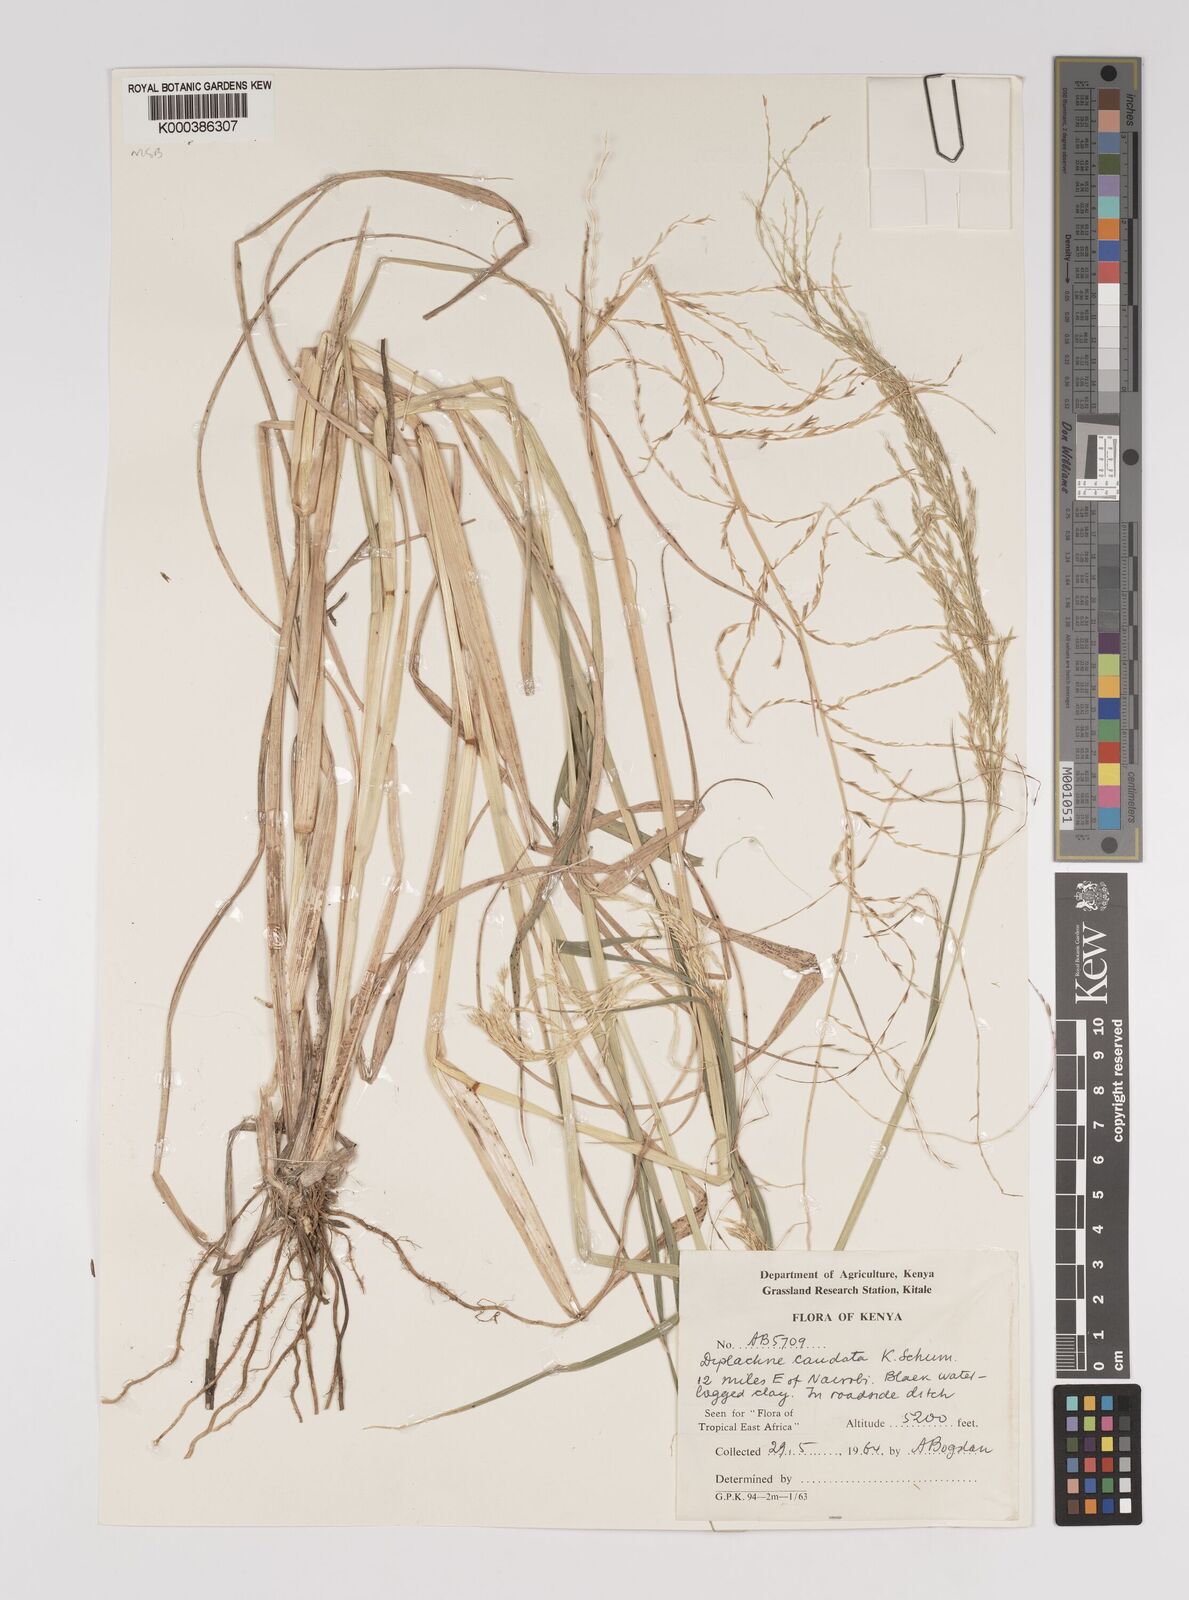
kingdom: Plantae
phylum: Tracheophyta
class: Liliopsida
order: Poales
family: Poaceae
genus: Leptochloa
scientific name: Leptochloa caudata
